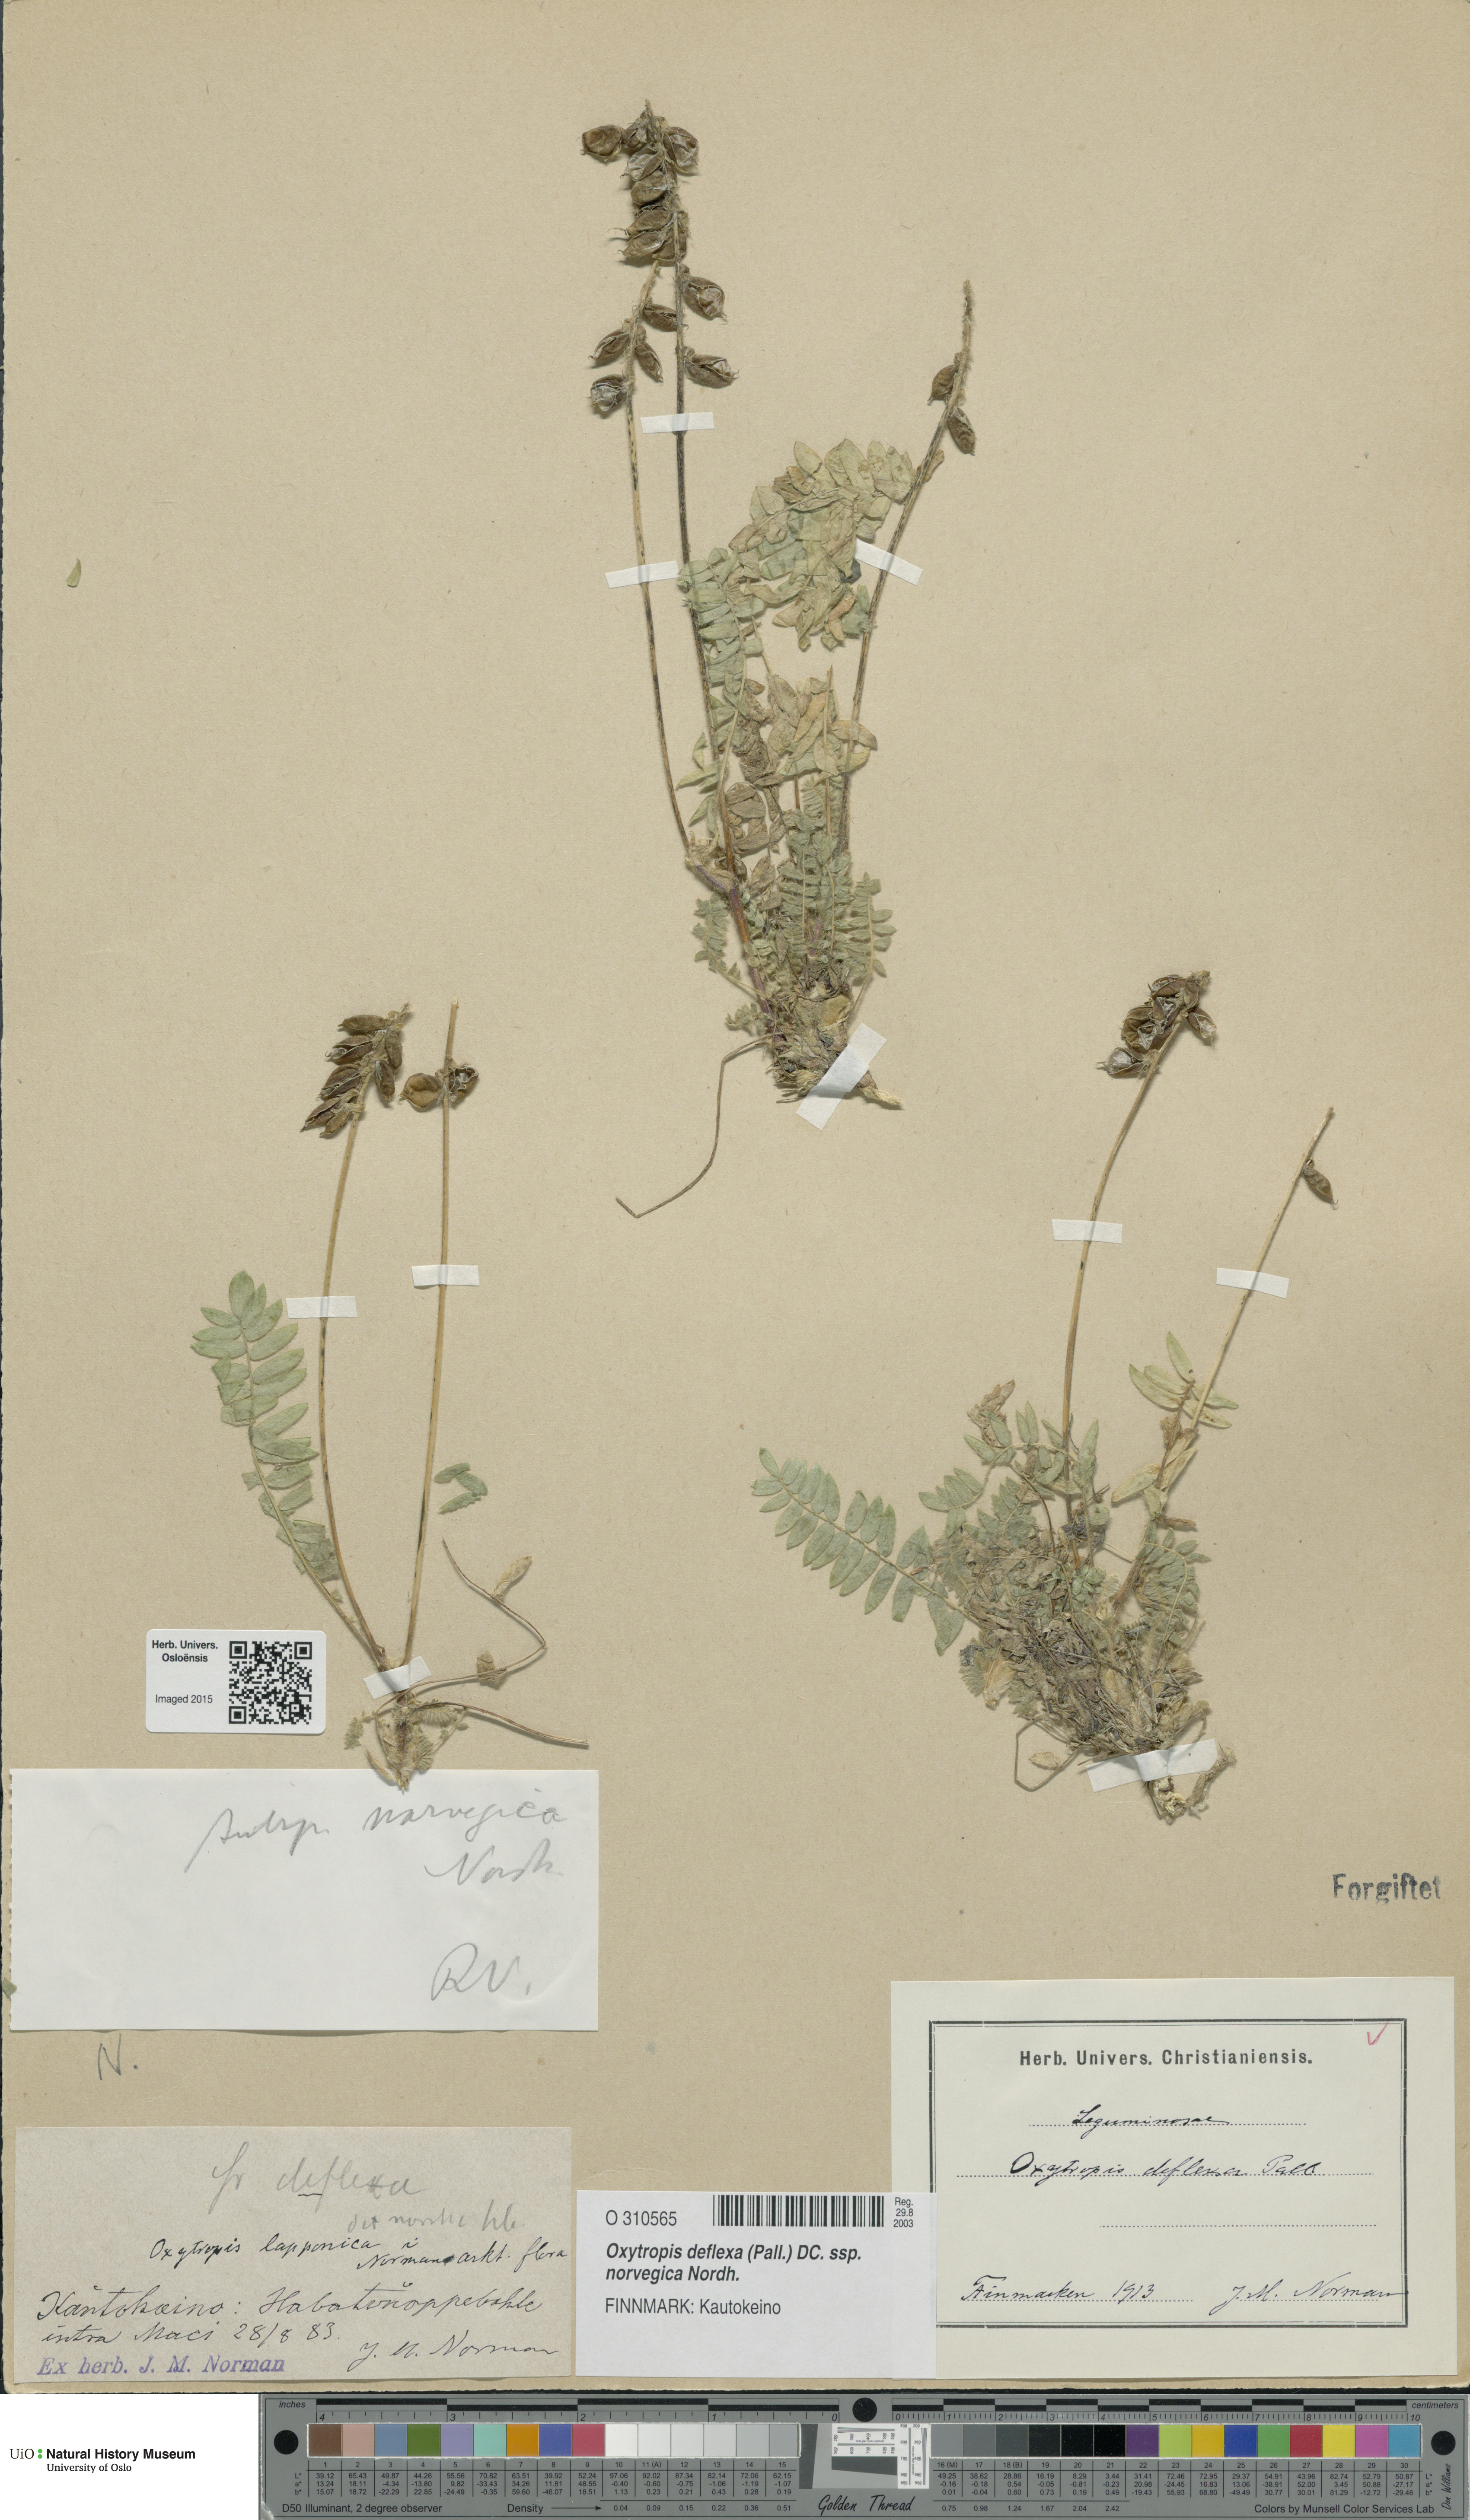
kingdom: Plantae
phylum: Tracheophyta
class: Magnoliopsida
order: Fabales
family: Fabaceae
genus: Oxytropis
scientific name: Oxytropis deflexa
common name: Stemmed oxytrope
